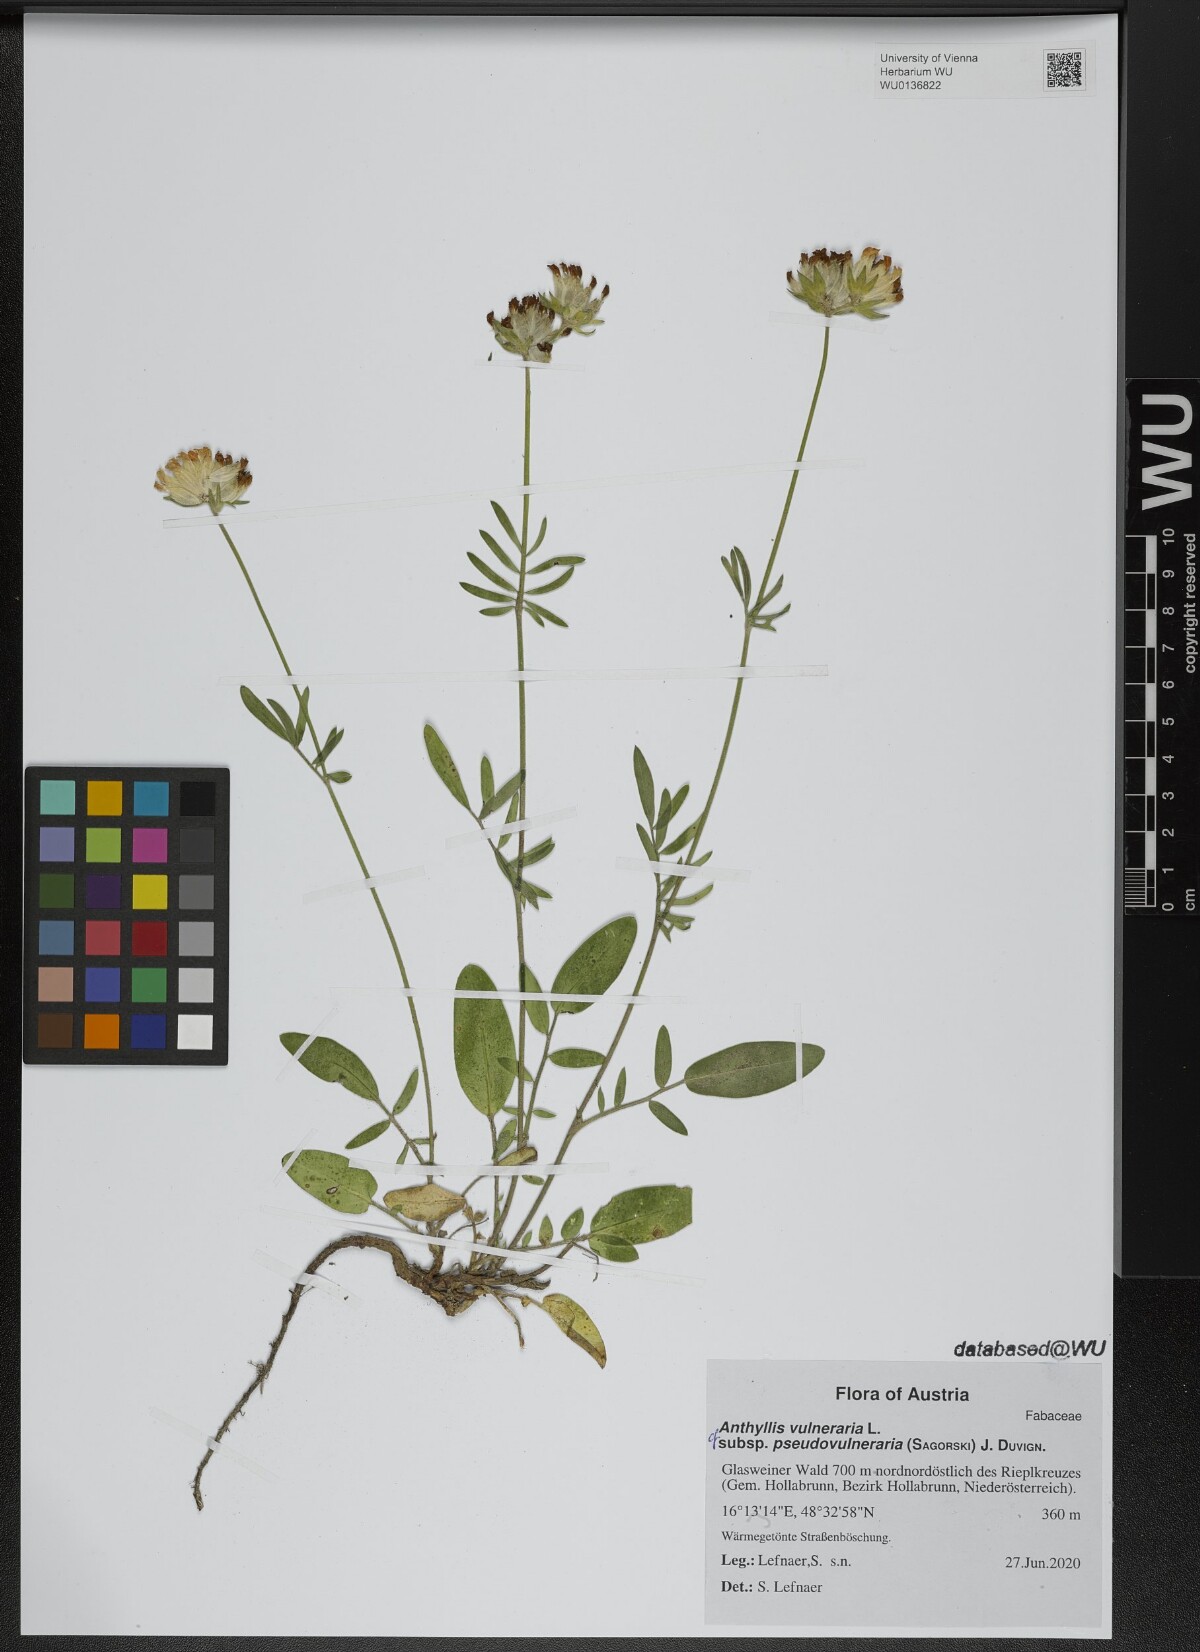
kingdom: Plantae
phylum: Tracheophyta
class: Magnoliopsida
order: Fabales
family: Fabaceae
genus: Anthyllis
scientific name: Anthyllis vulneraria
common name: Kidney vetch
